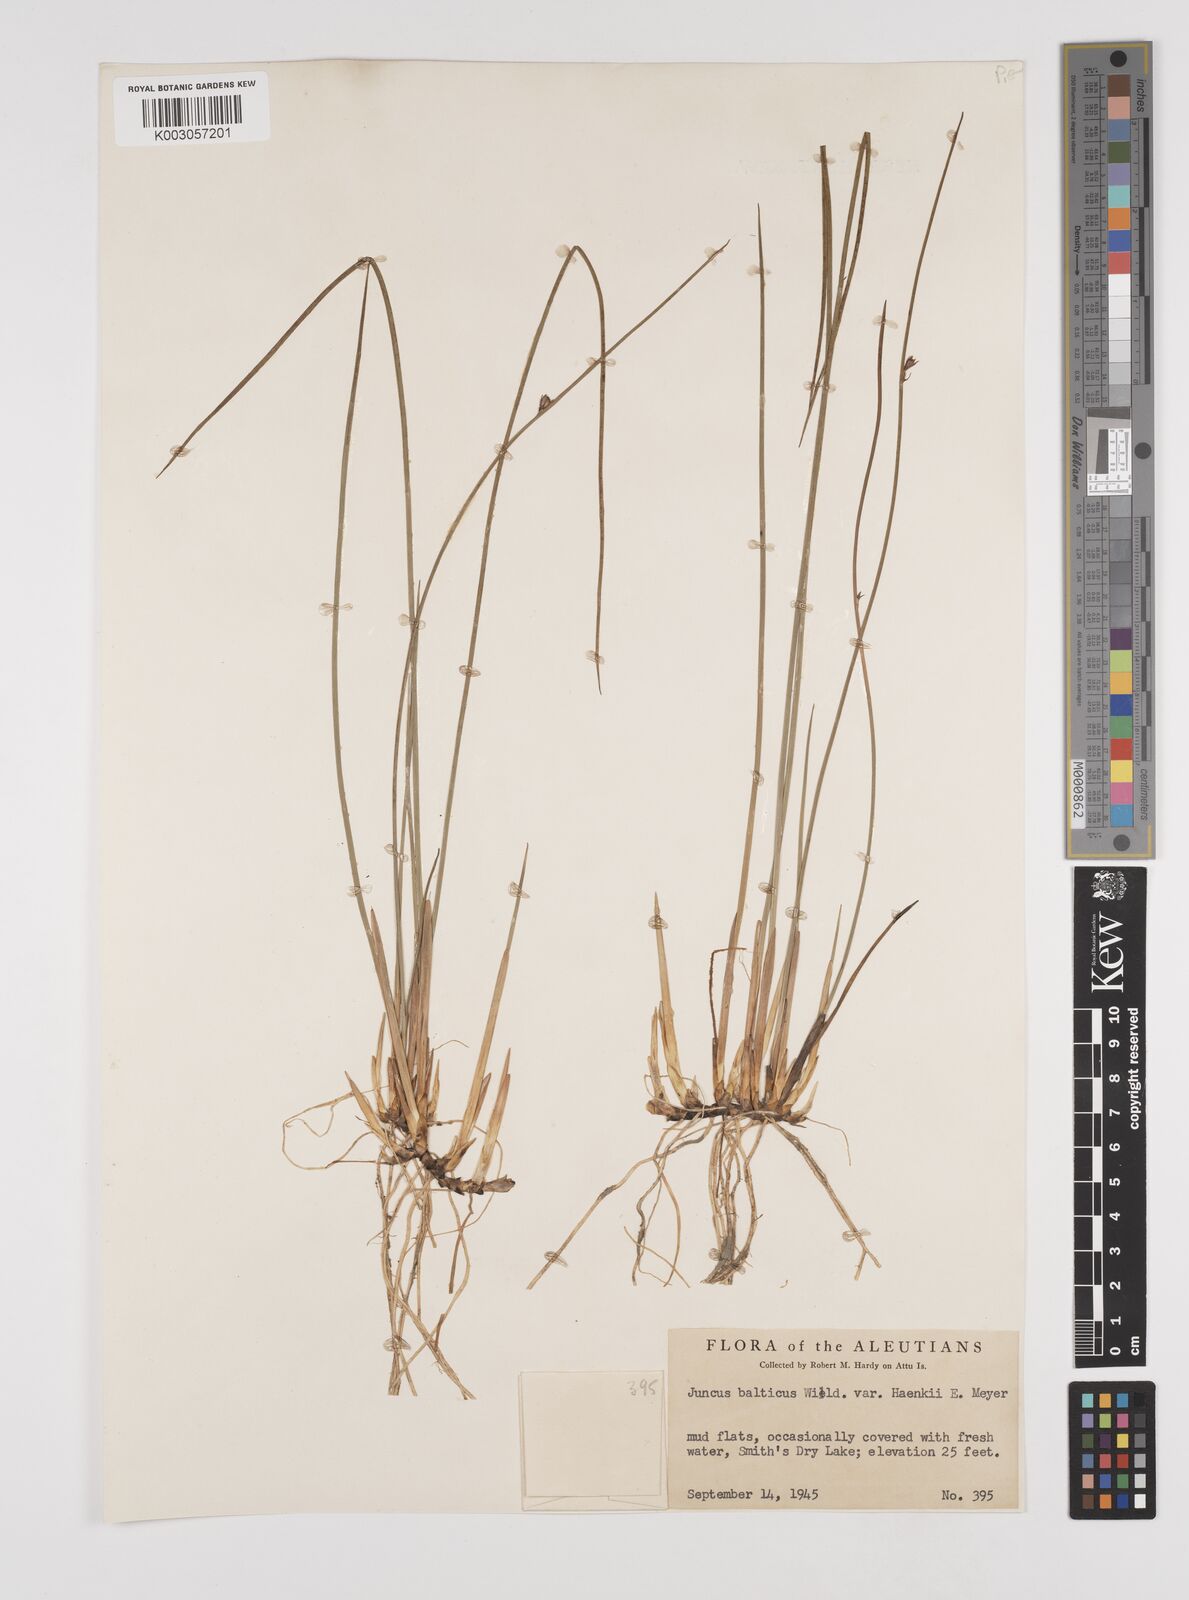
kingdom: Plantae
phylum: Tracheophyta
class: Liliopsida
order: Poales
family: Juncaceae
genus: Juncus
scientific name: Juncus ensifolius
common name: Sword-leaved rush
